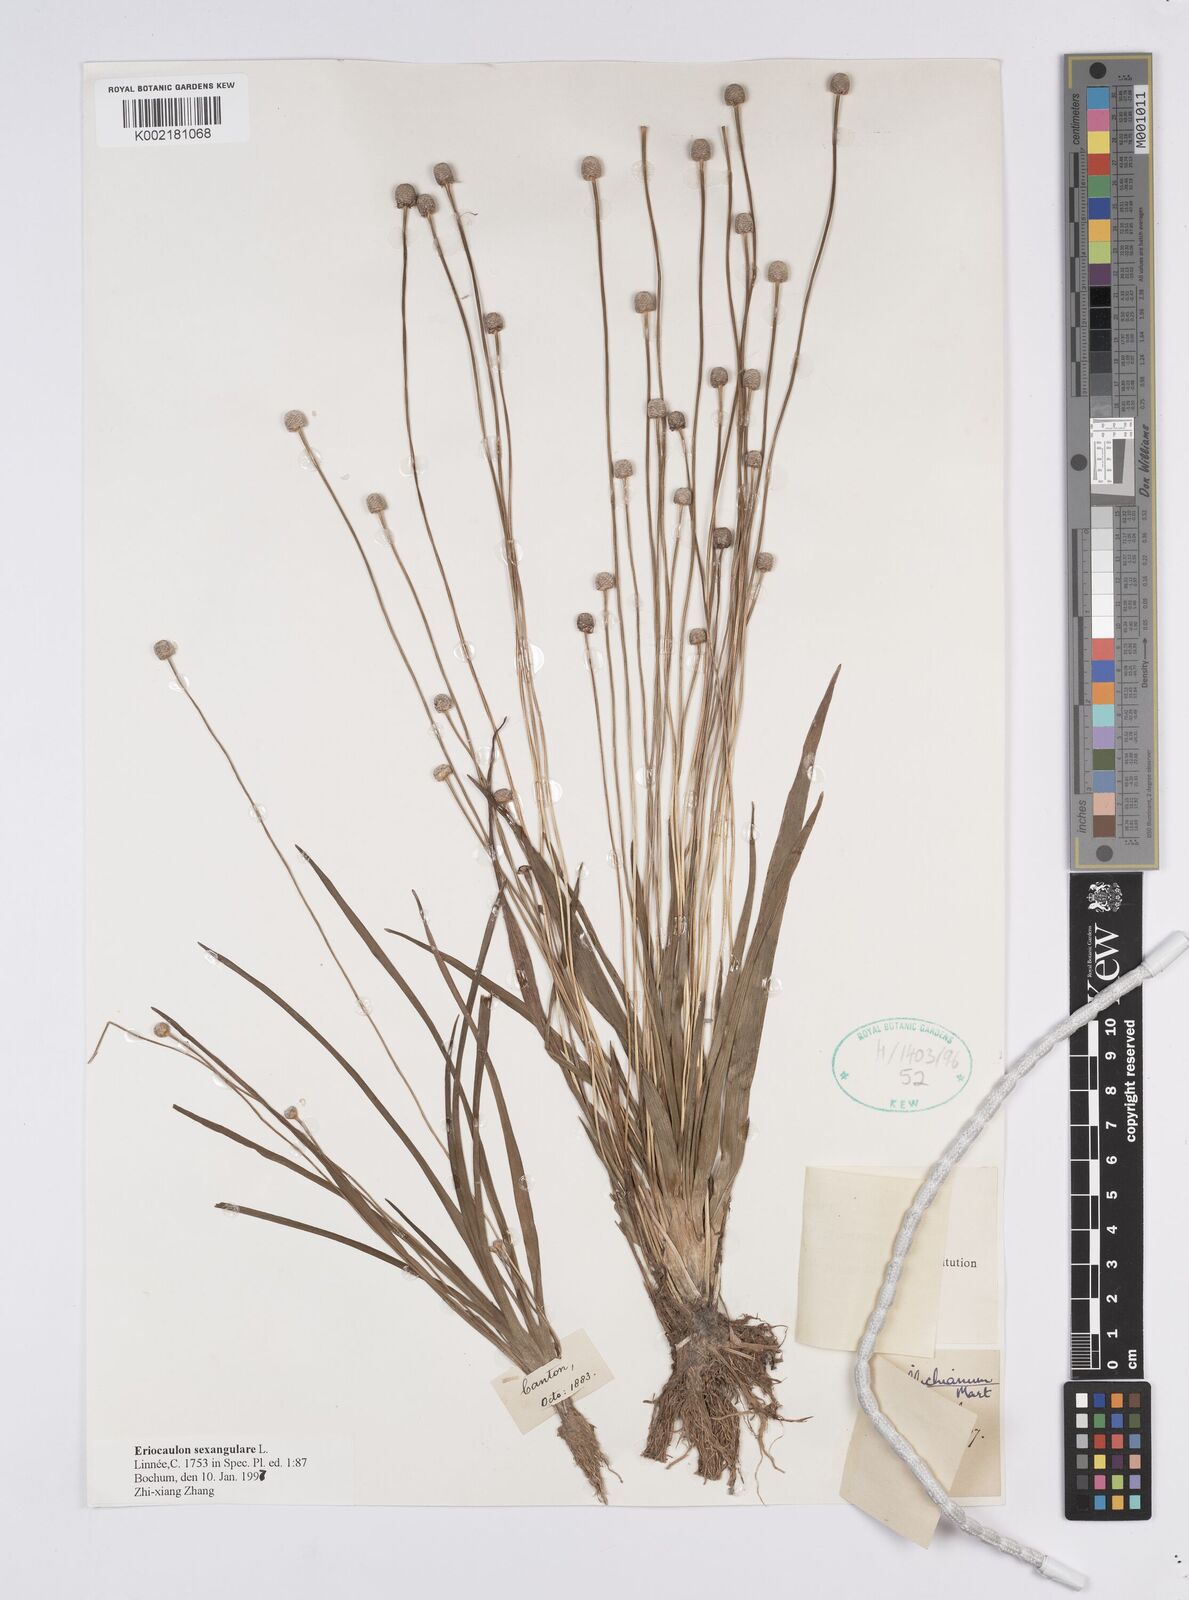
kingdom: Plantae
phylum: Tracheophyta
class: Liliopsida
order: Poales
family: Eriocaulaceae
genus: Eriocaulon
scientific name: Eriocaulon sexangulare
